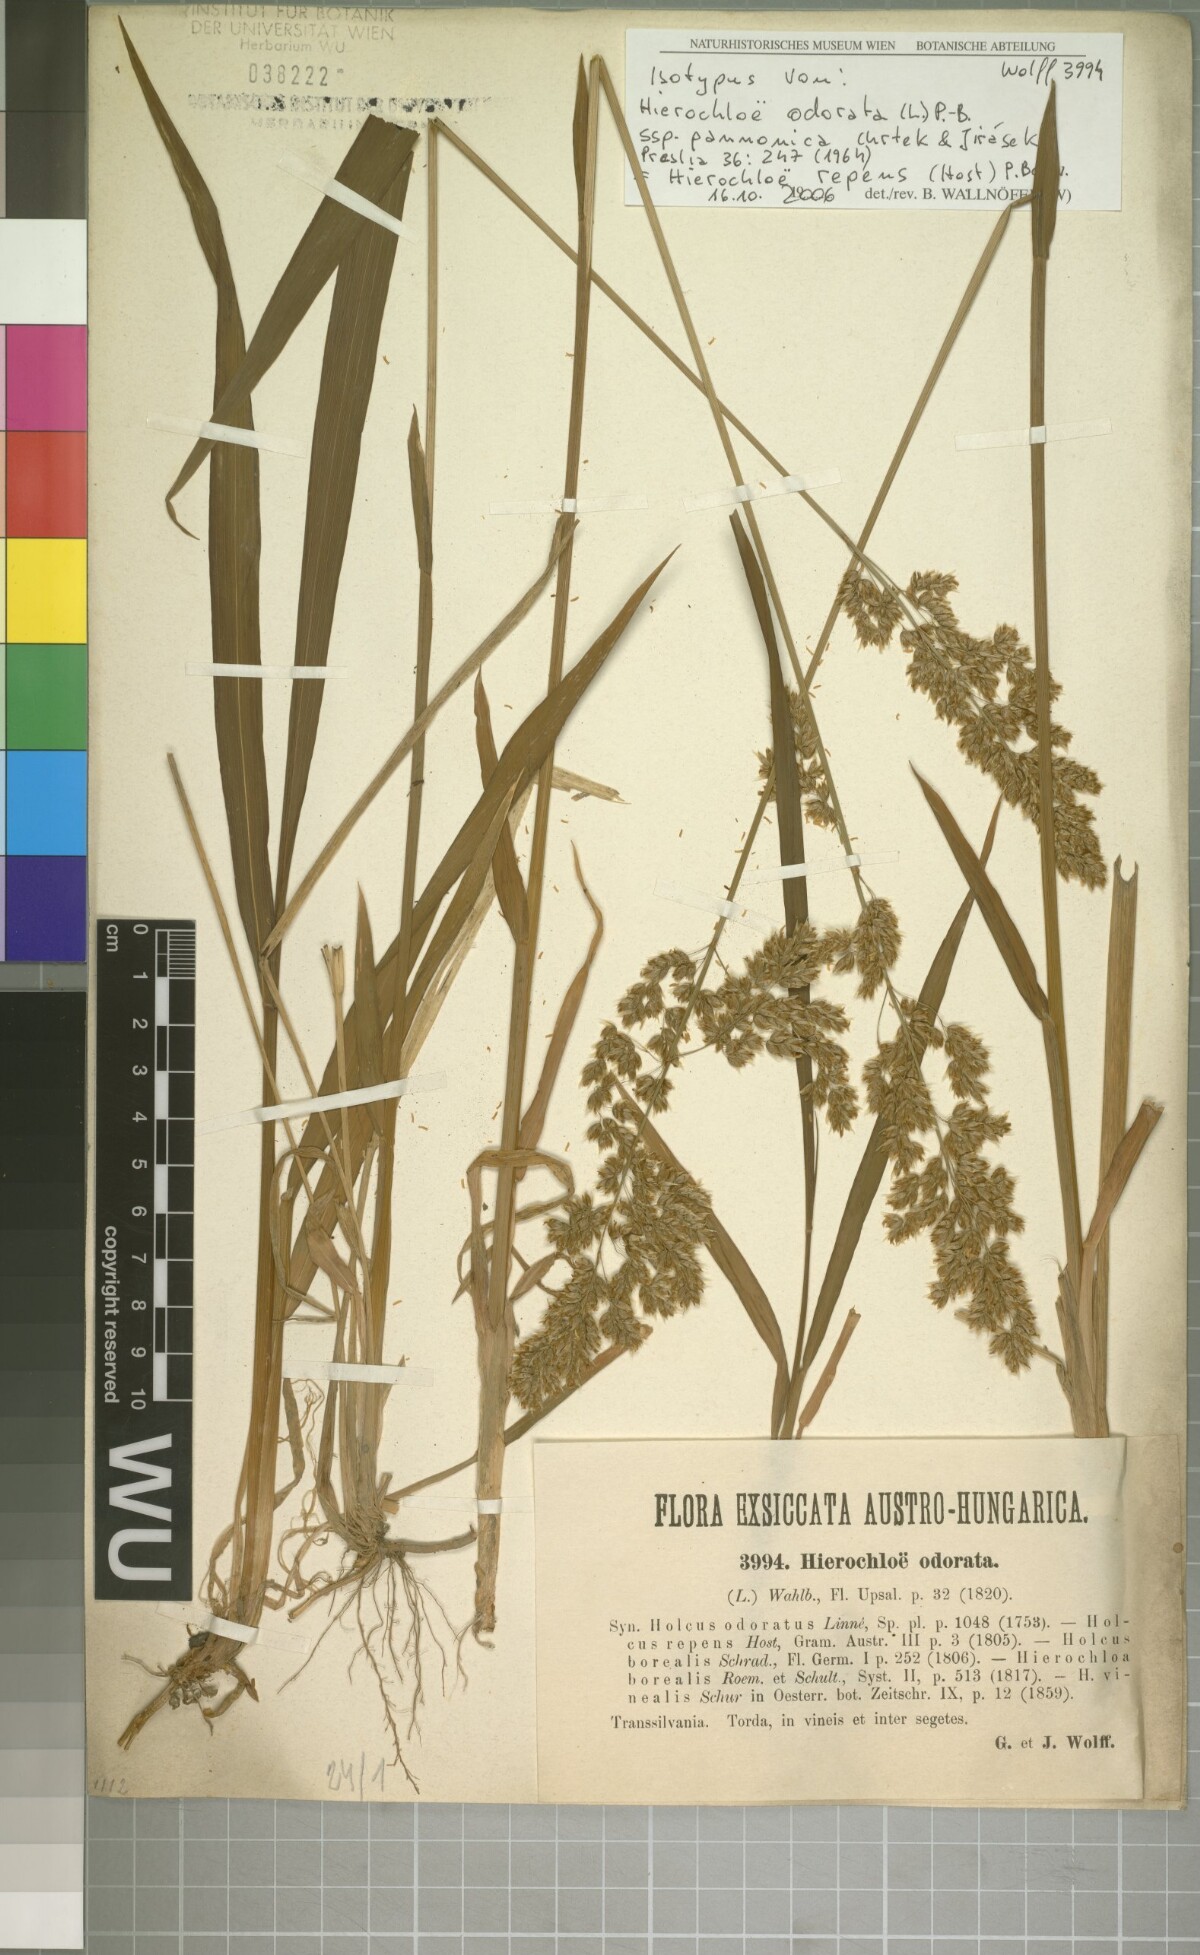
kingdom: Plantae
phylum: Tracheophyta
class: Liliopsida
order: Poales
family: Poaceae
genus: Anthoxanthum
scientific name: Anthoxanthum repens
